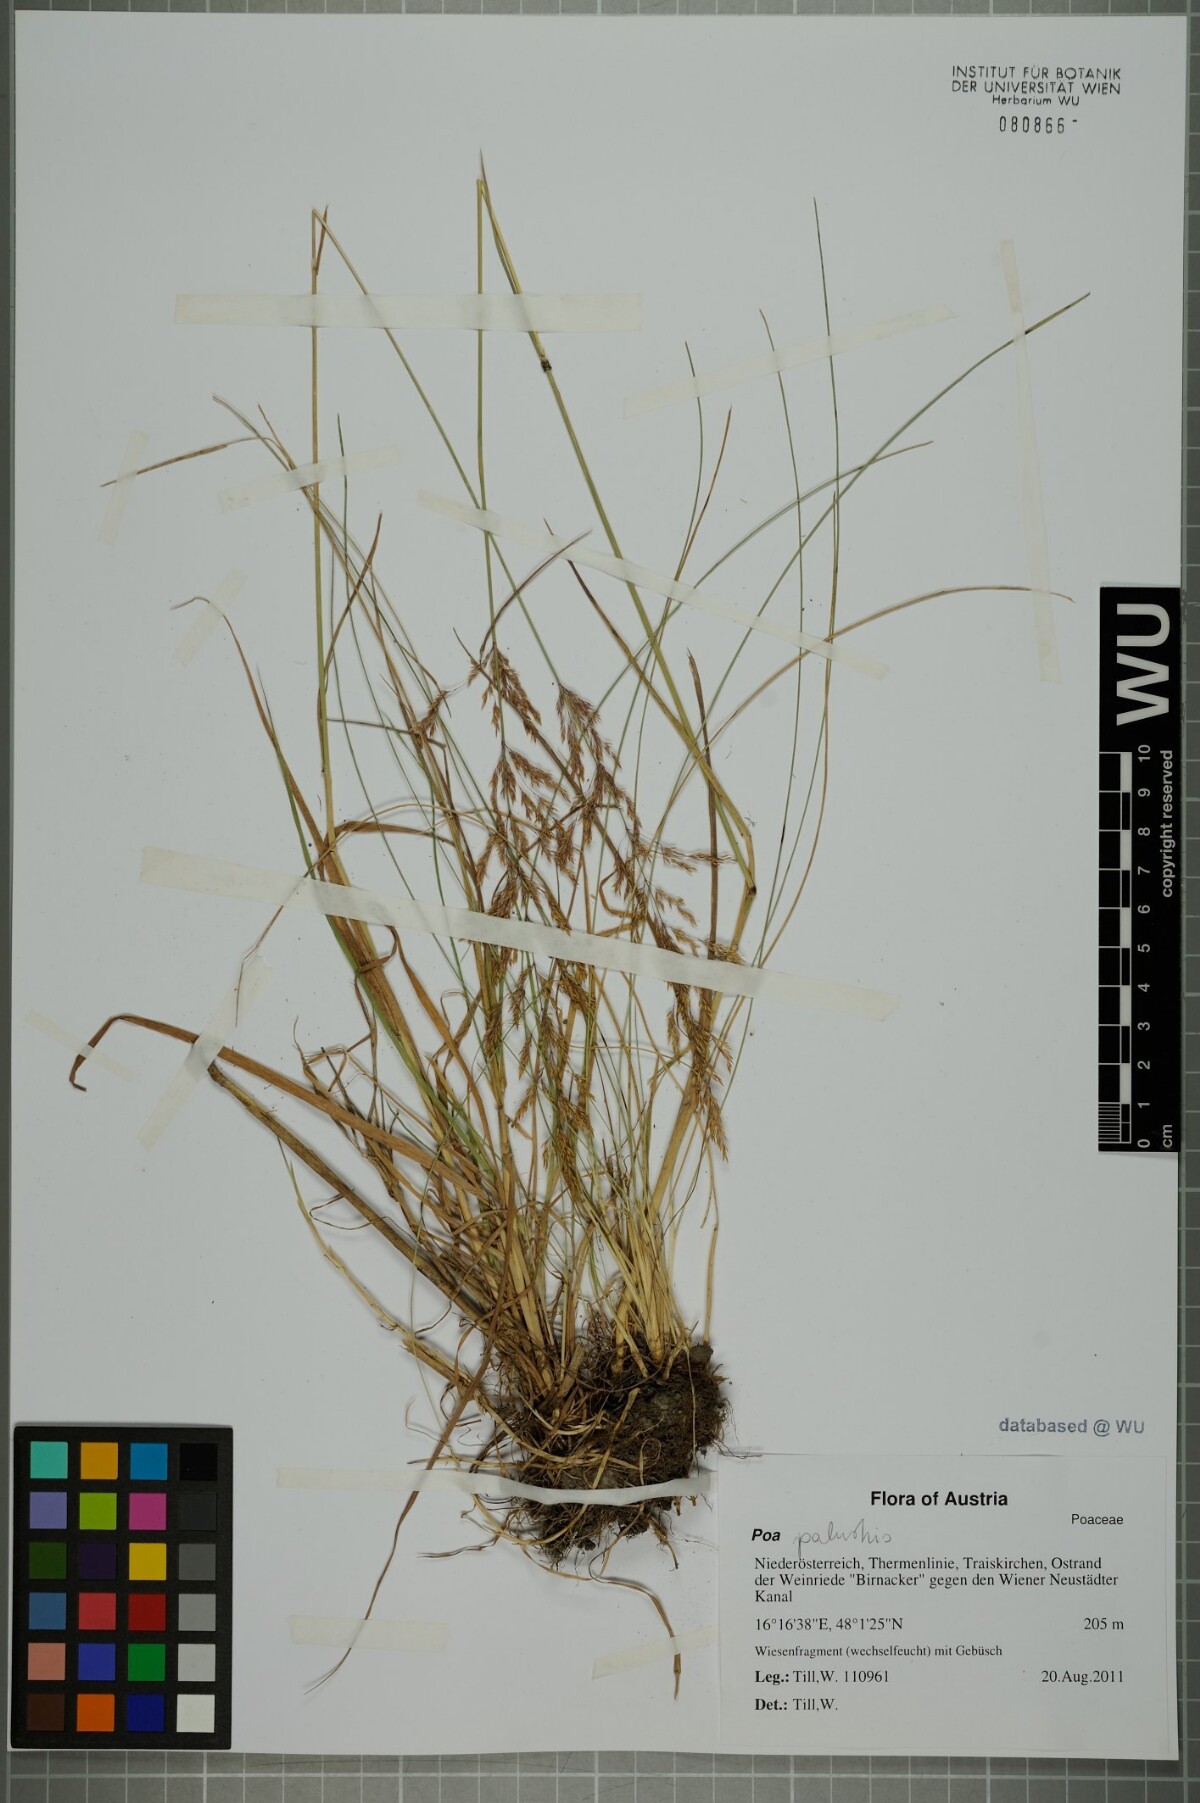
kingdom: Plantae
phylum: Tracheophyta
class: Liliopsida
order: Poales
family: Poaceae
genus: Poa
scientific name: Poa palustris
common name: Swamp meadow-grass
